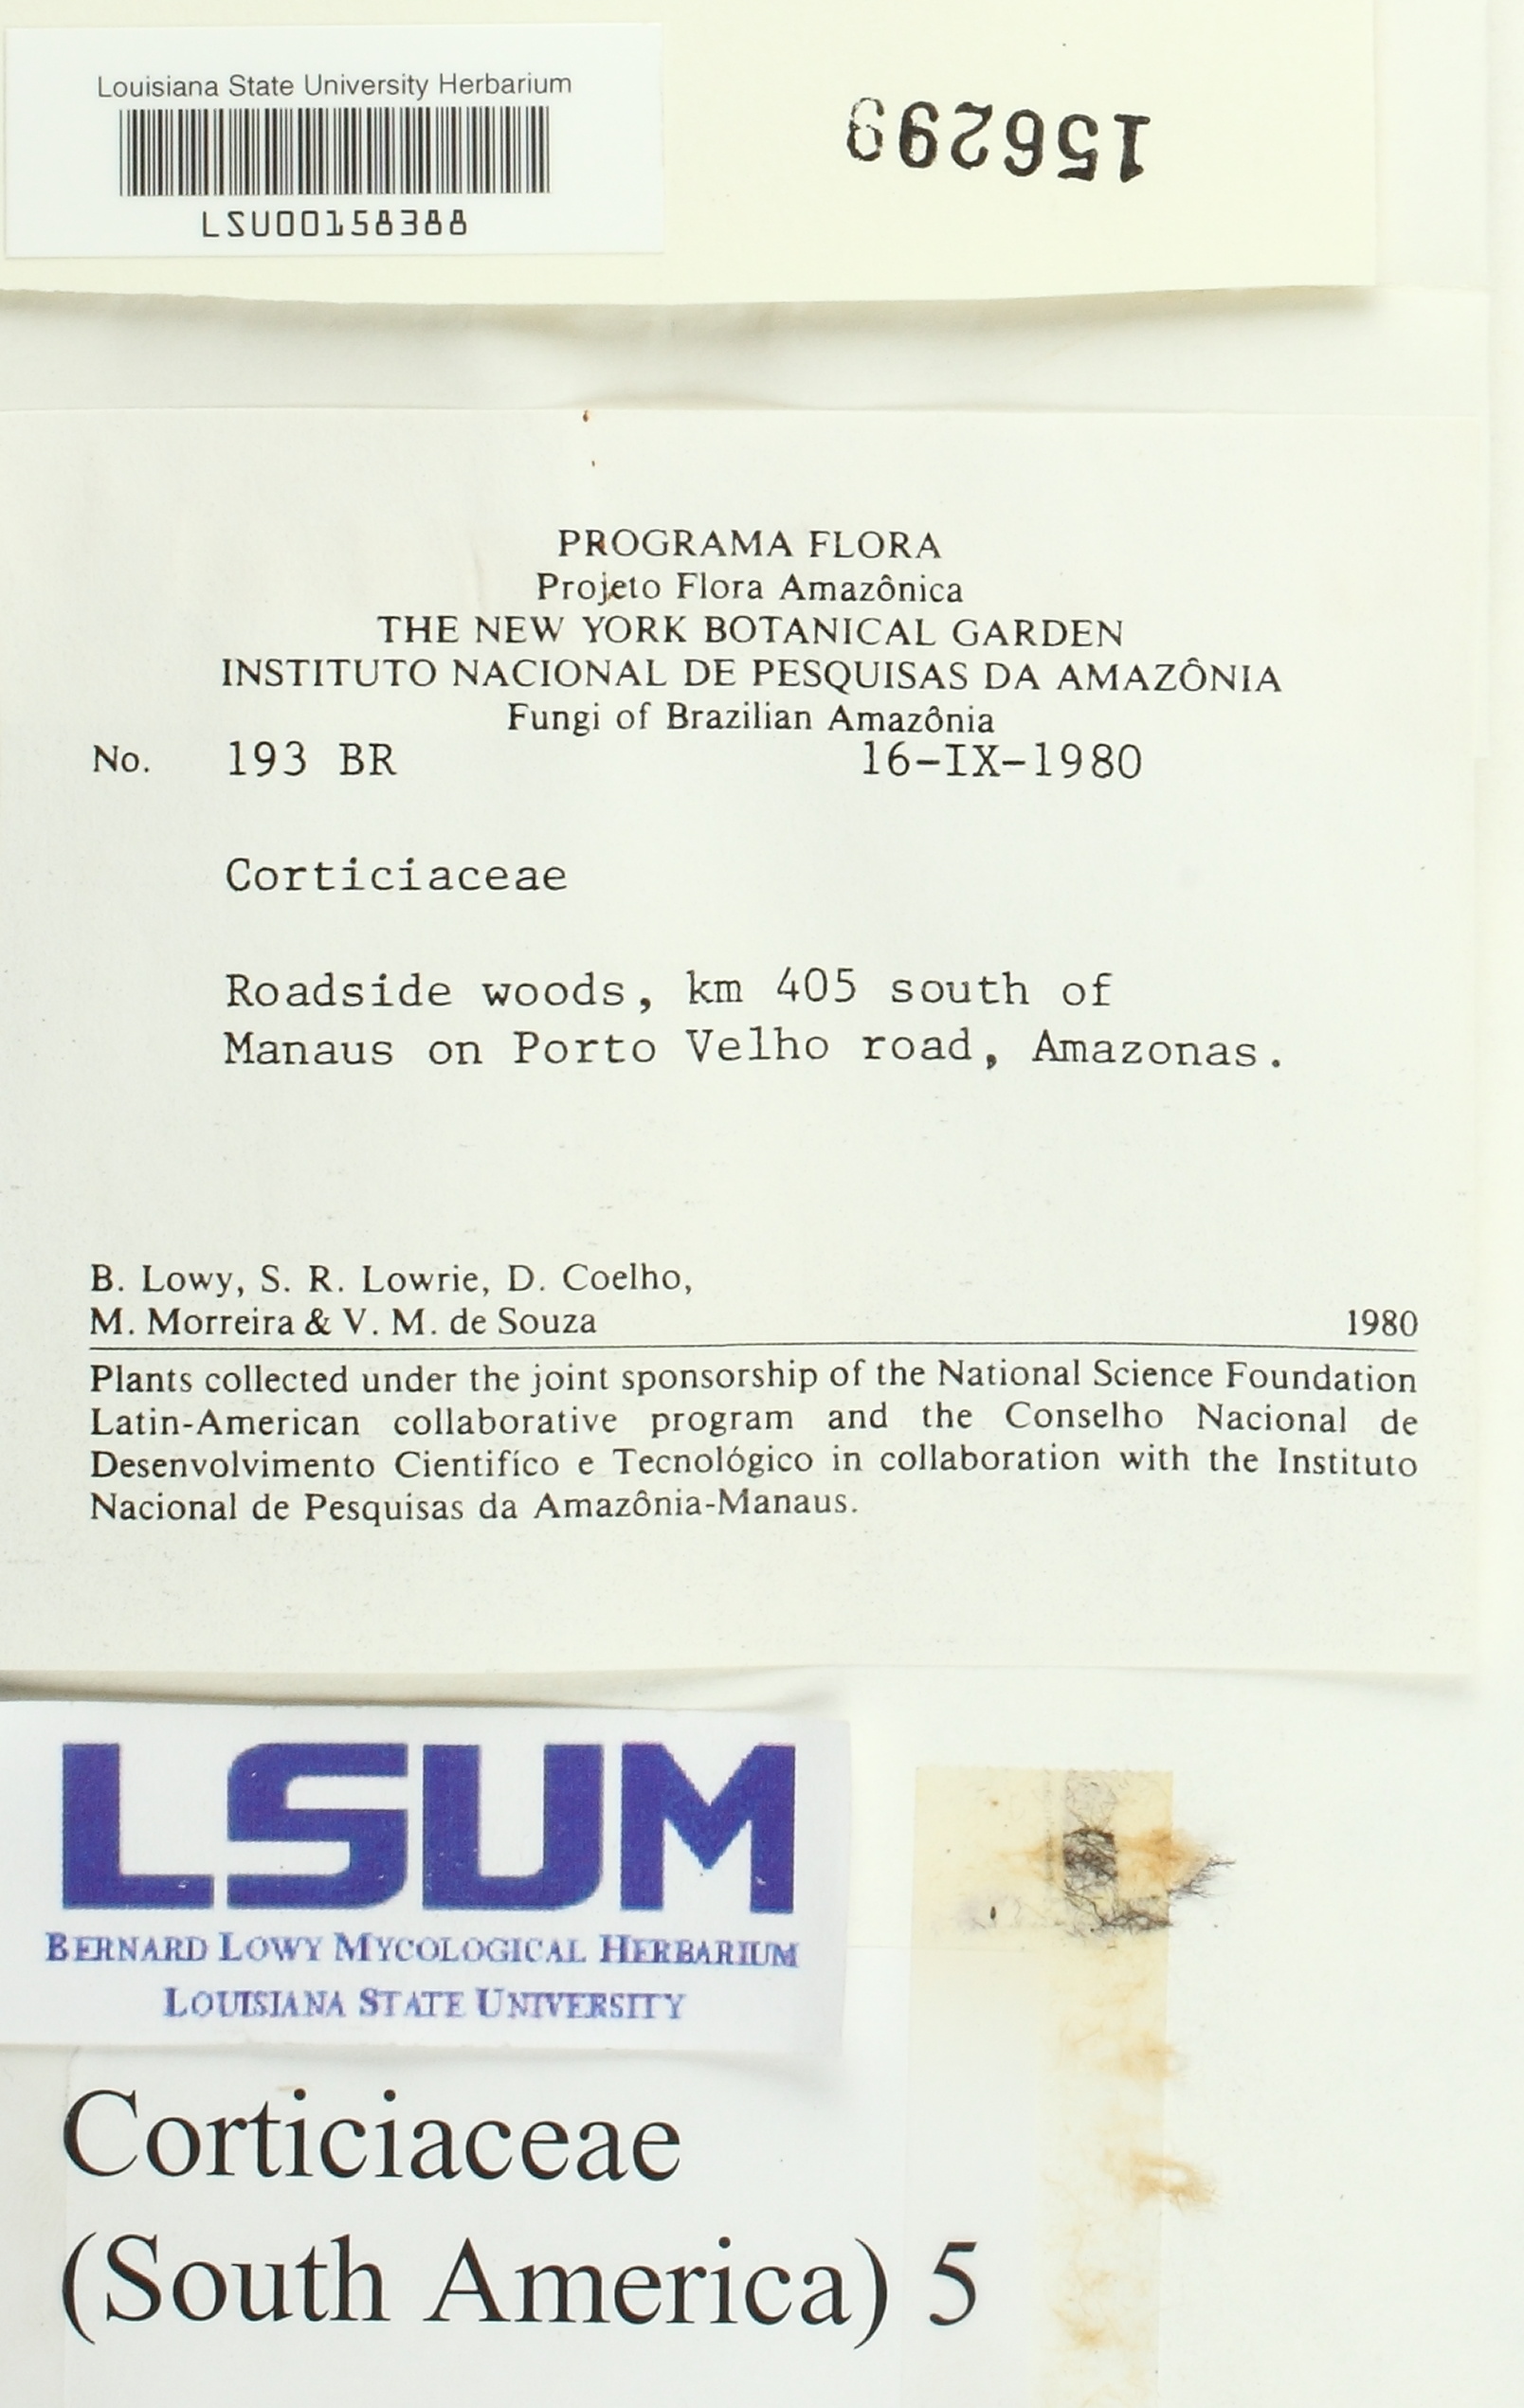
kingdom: Fungi
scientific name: Fungi
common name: Fungi
